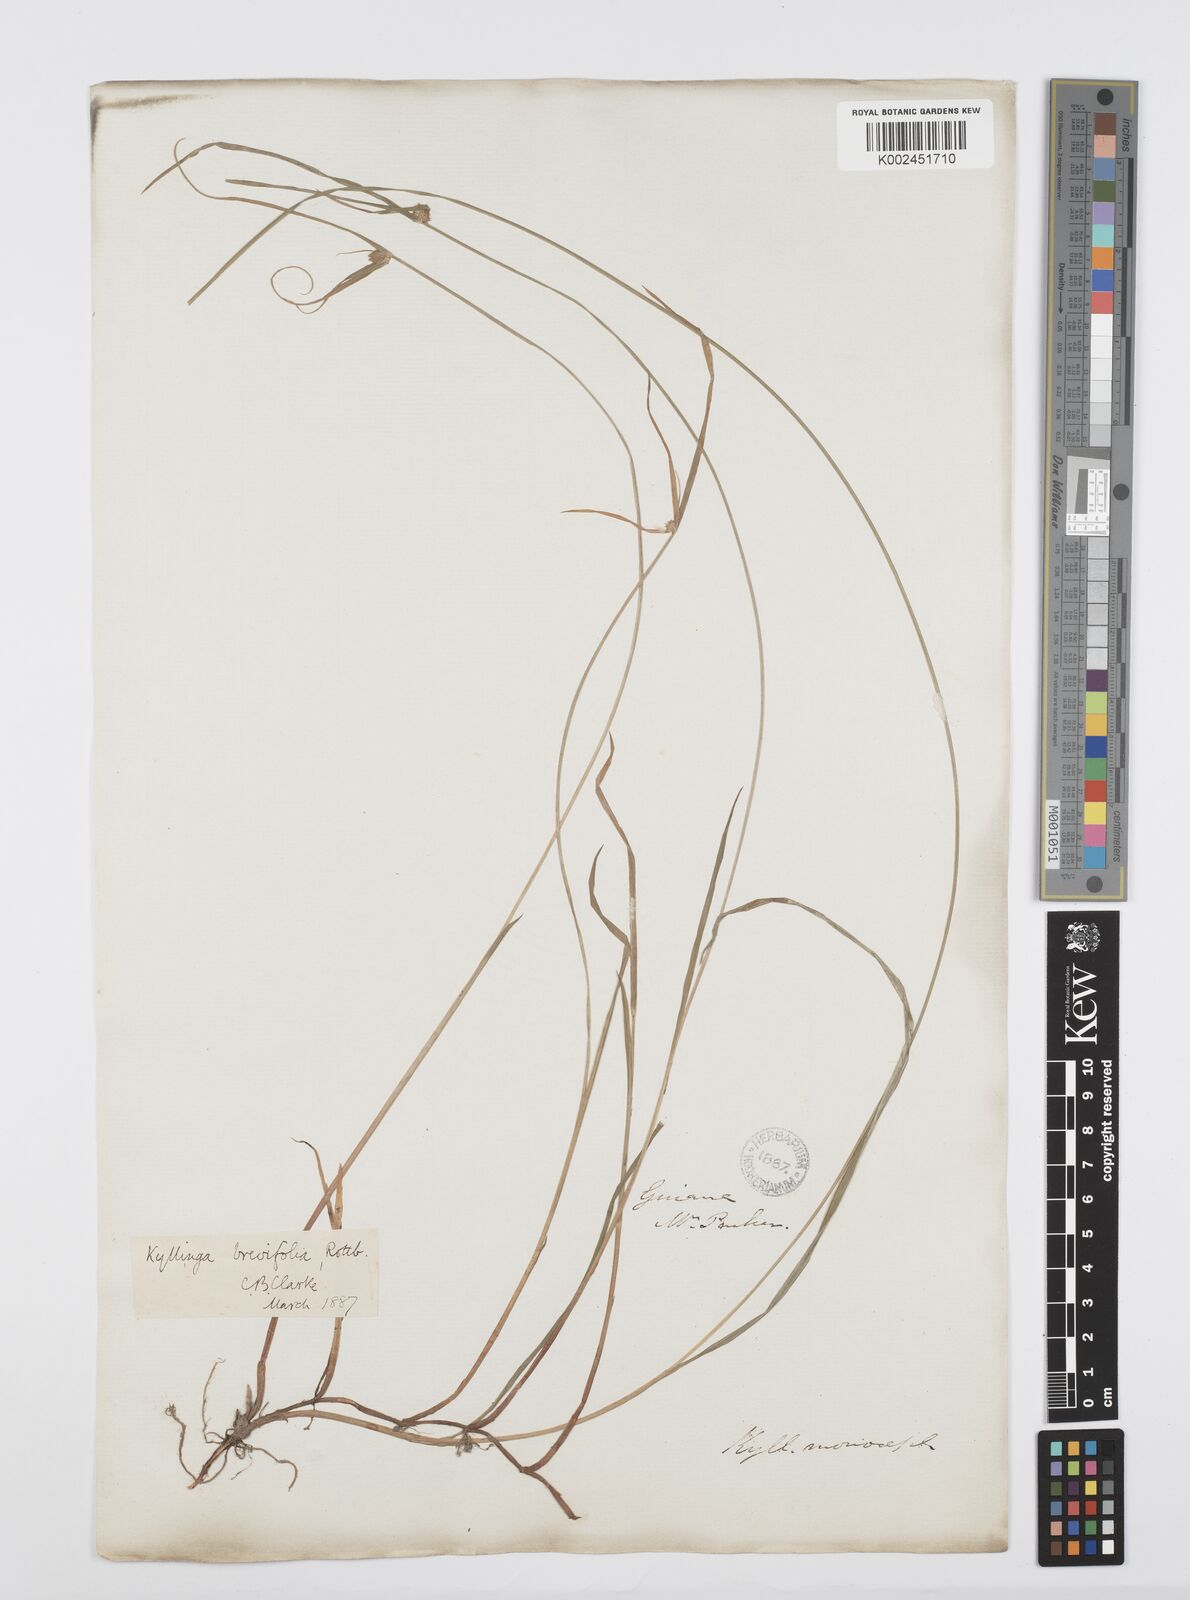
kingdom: Plantae
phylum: Tracheophyta
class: Liliopsida
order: Poales
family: Cyperaceae
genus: Cyperus
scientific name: Cyperus brevifolius
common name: Globe kyllinga
